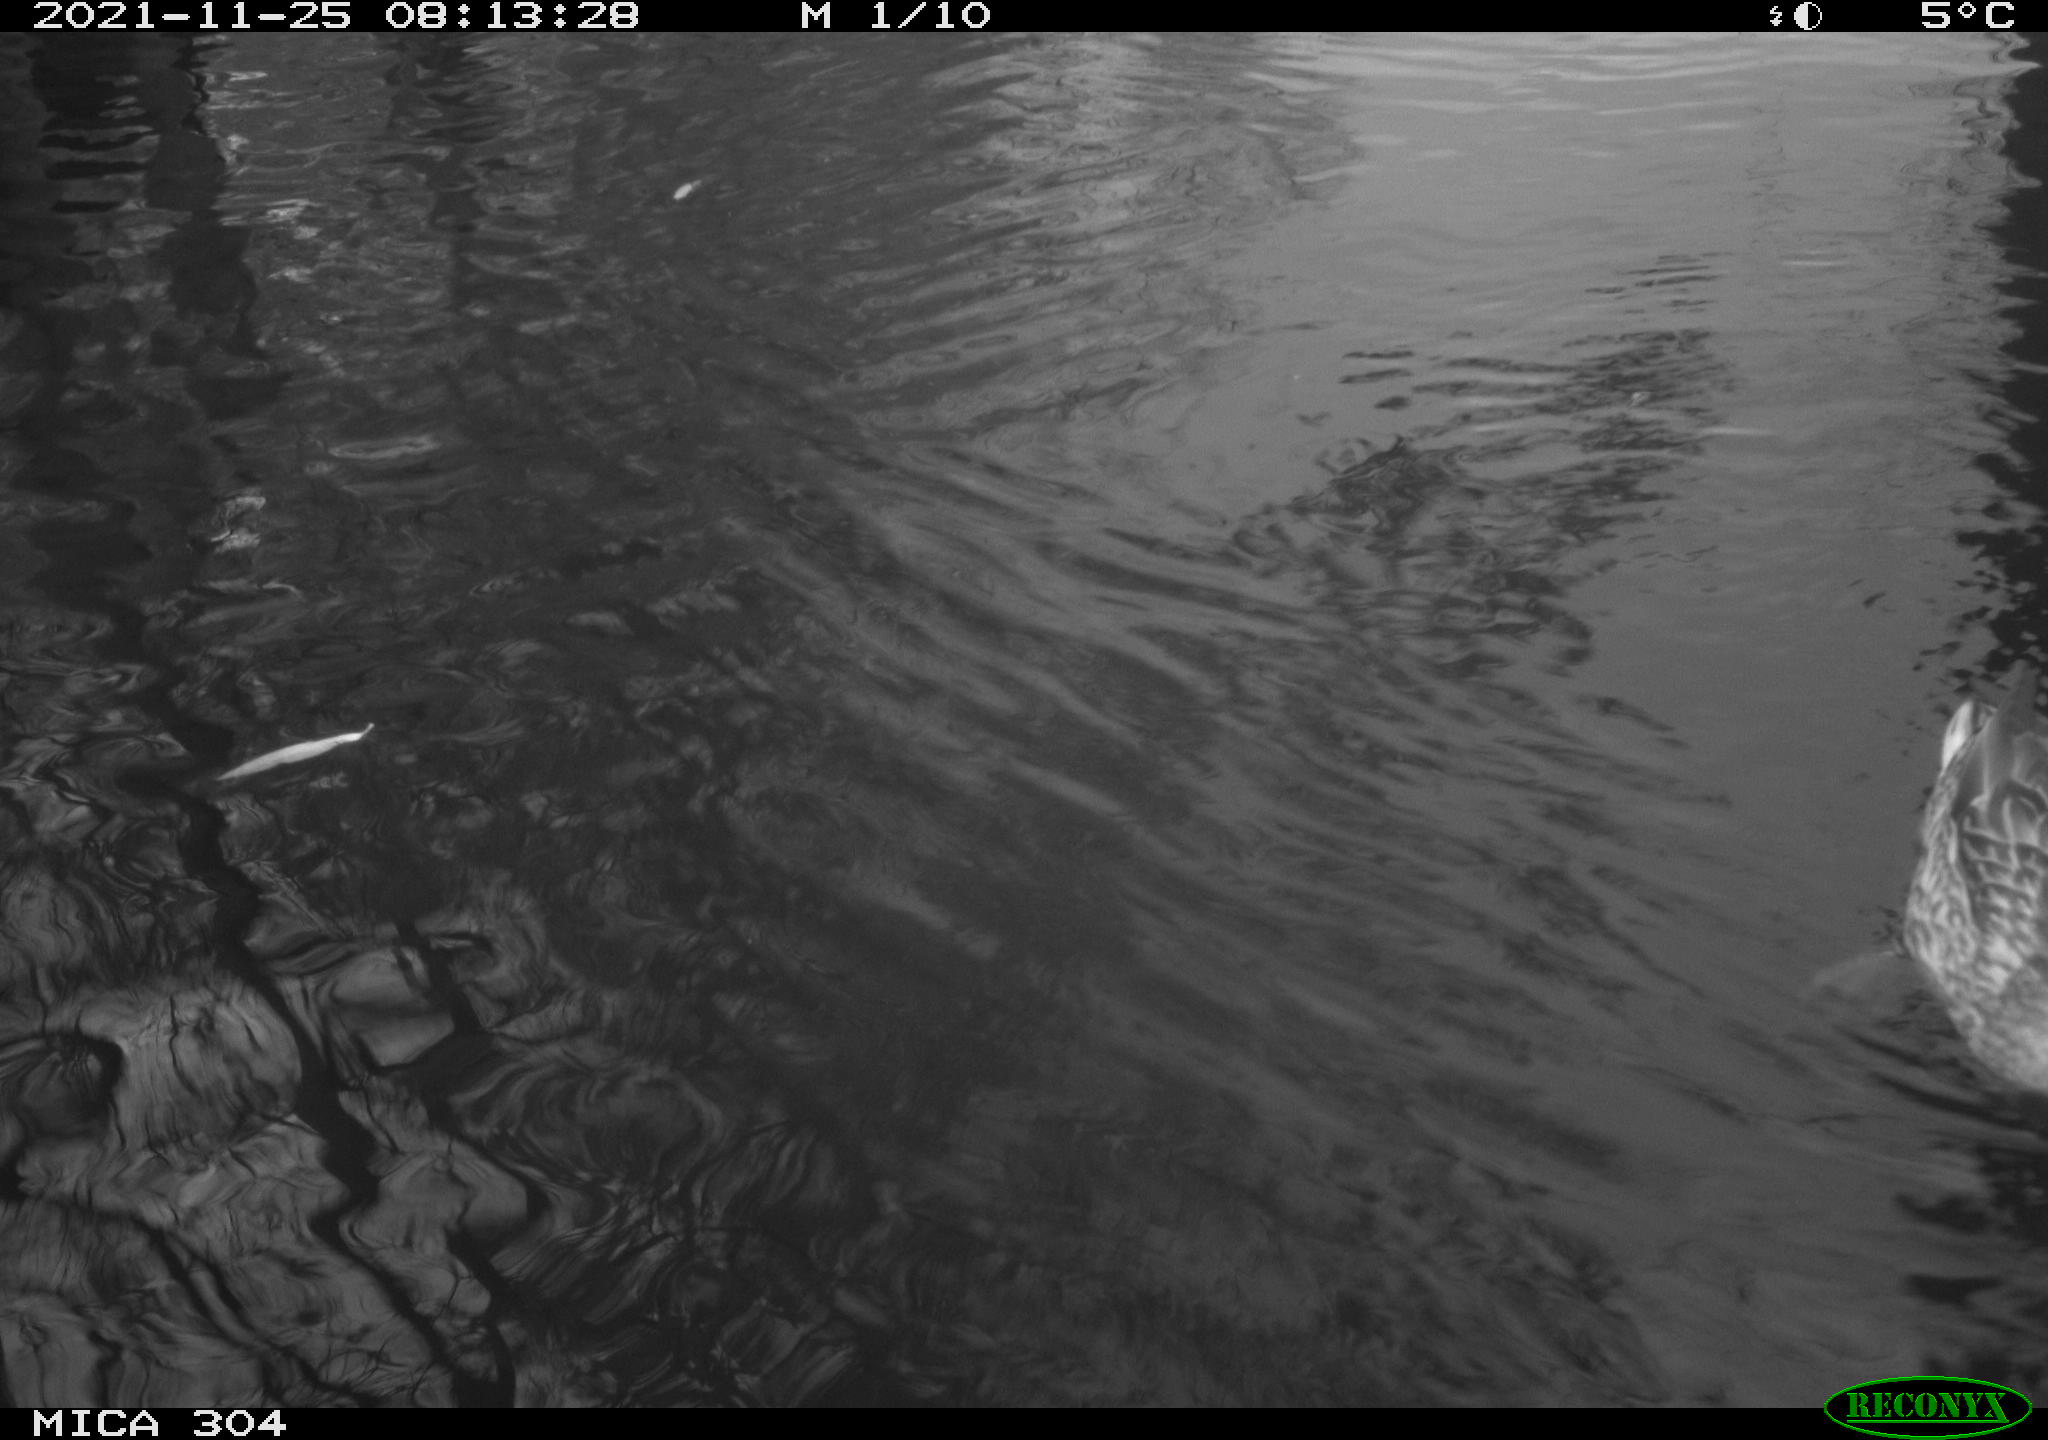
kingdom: Animalia
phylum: Chordata
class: Aves
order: Anseriformes
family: Anatidae
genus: Anas
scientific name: Anas platyrhynchos
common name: Mallard
